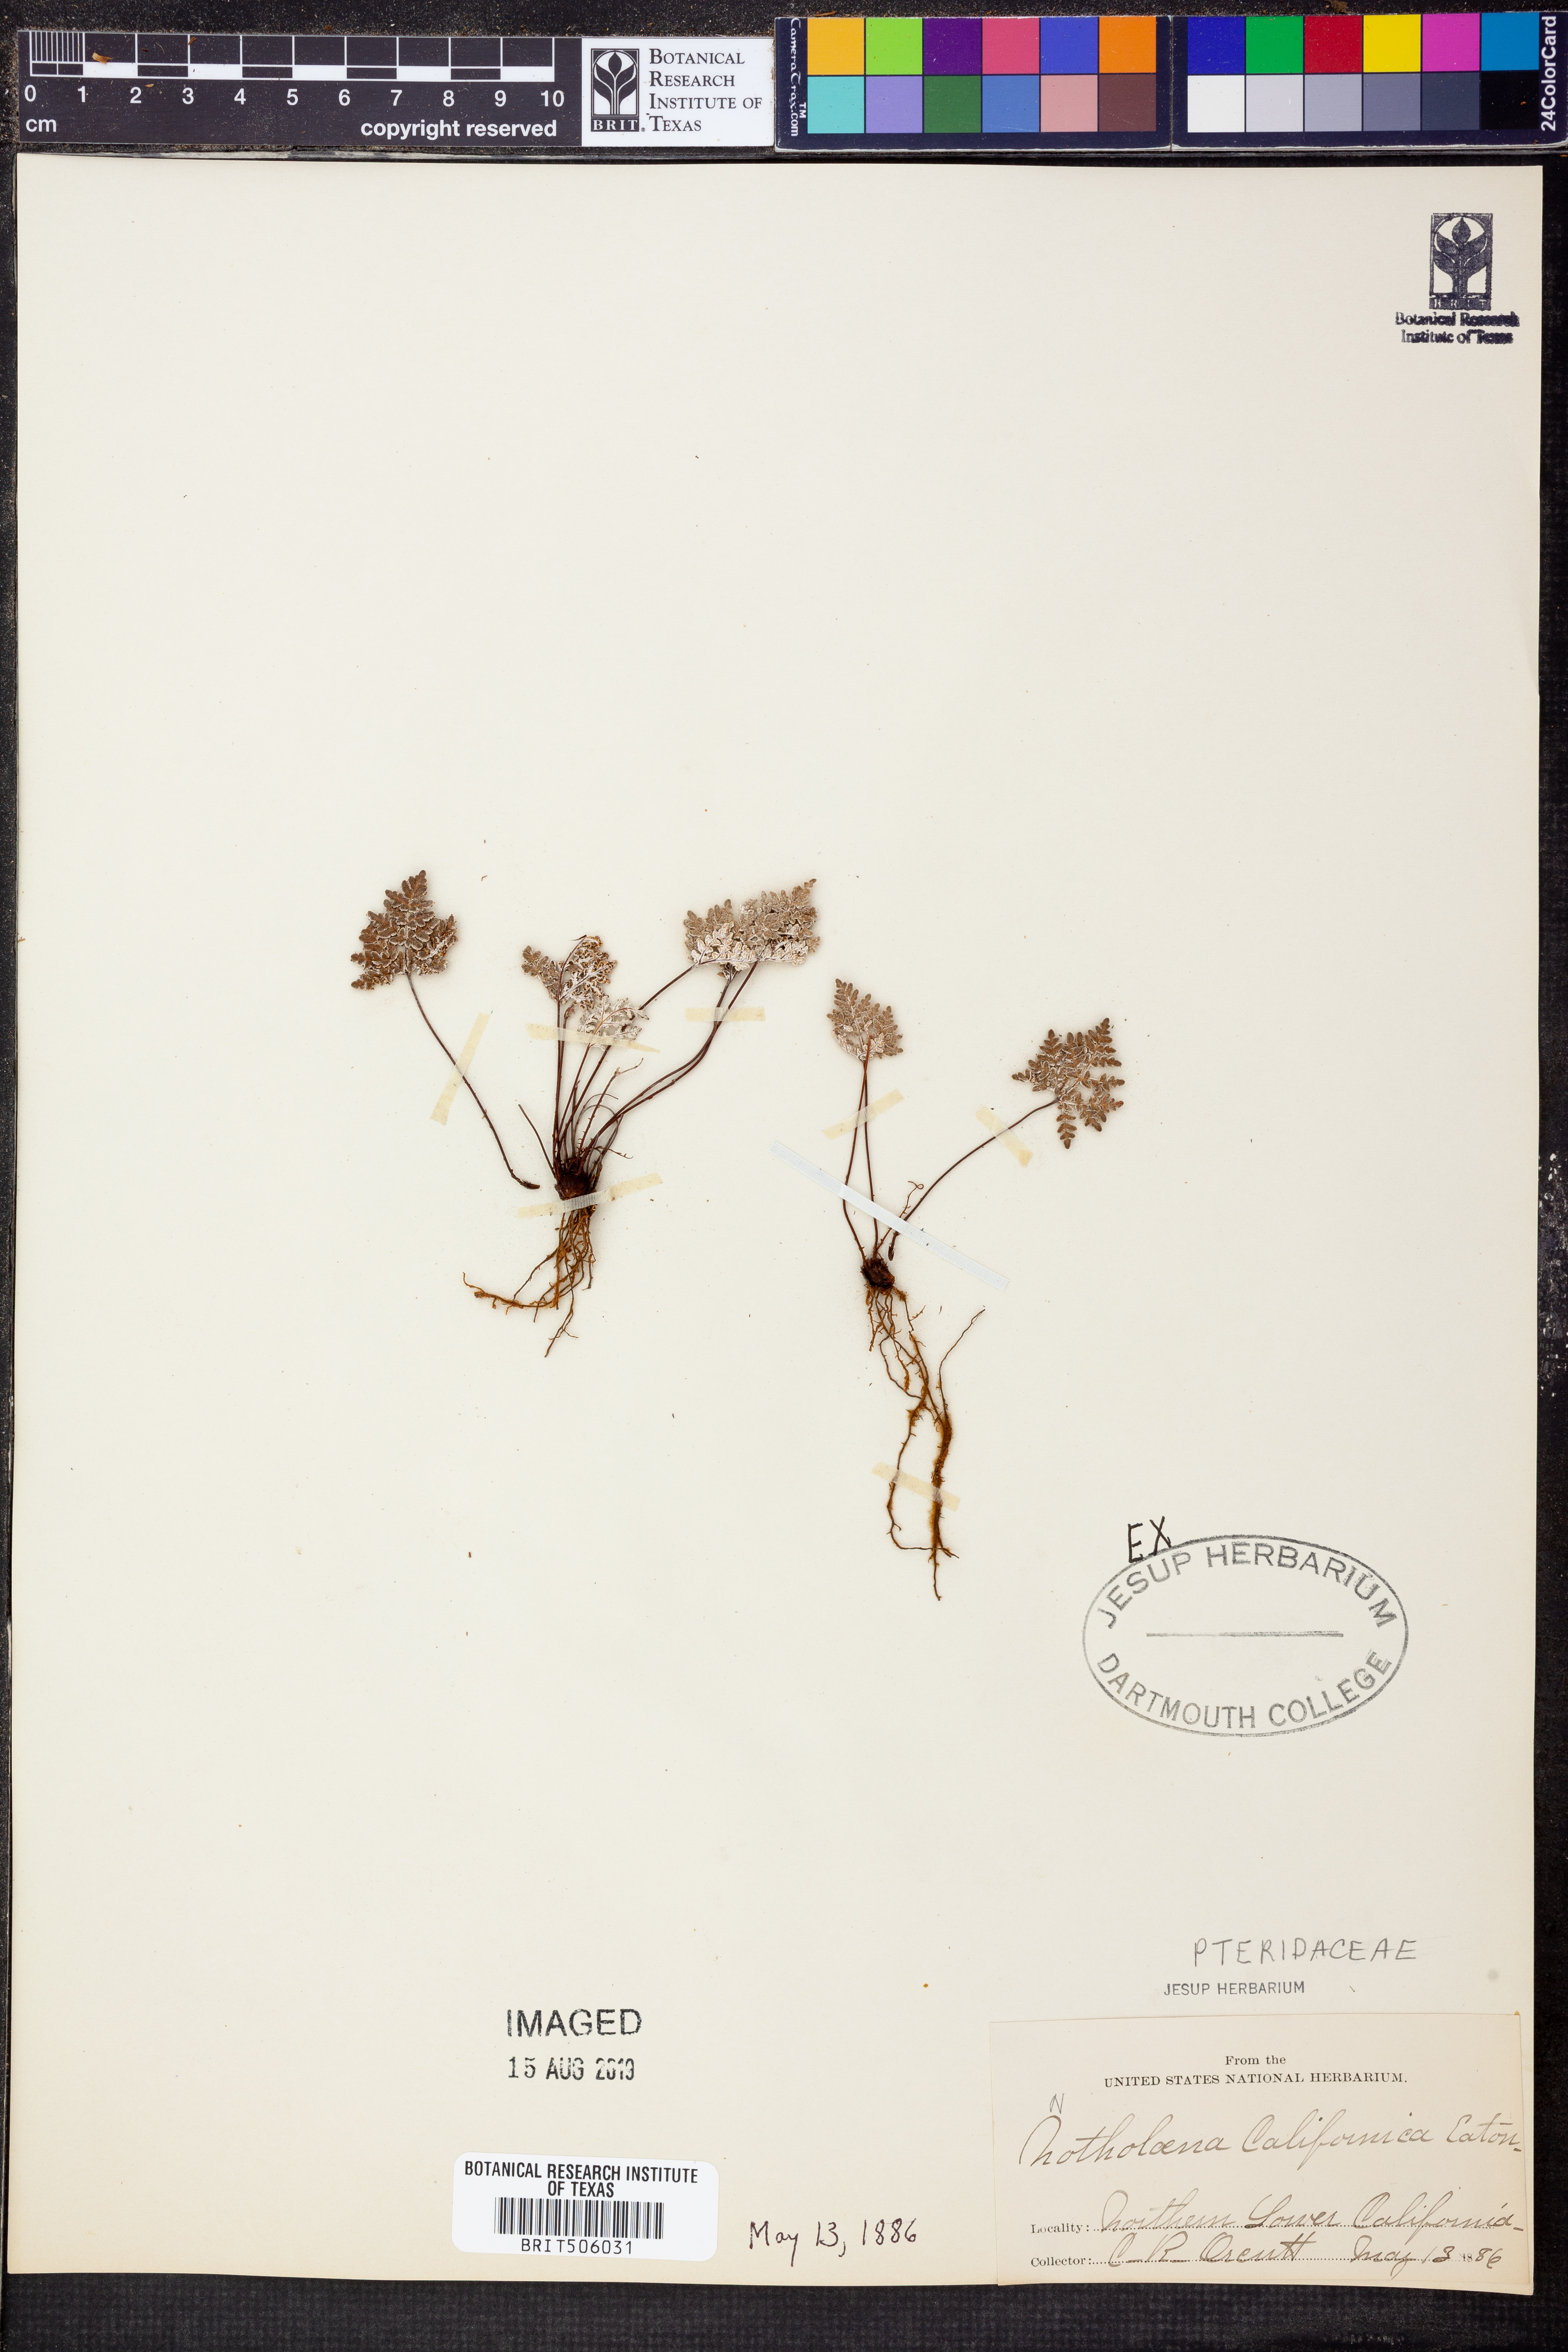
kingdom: Plantae
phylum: Tracheophyta
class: Polypodiopsida
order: Polypodiales
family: Pteridaceae
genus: Notholaena
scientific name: Notholaena californica
